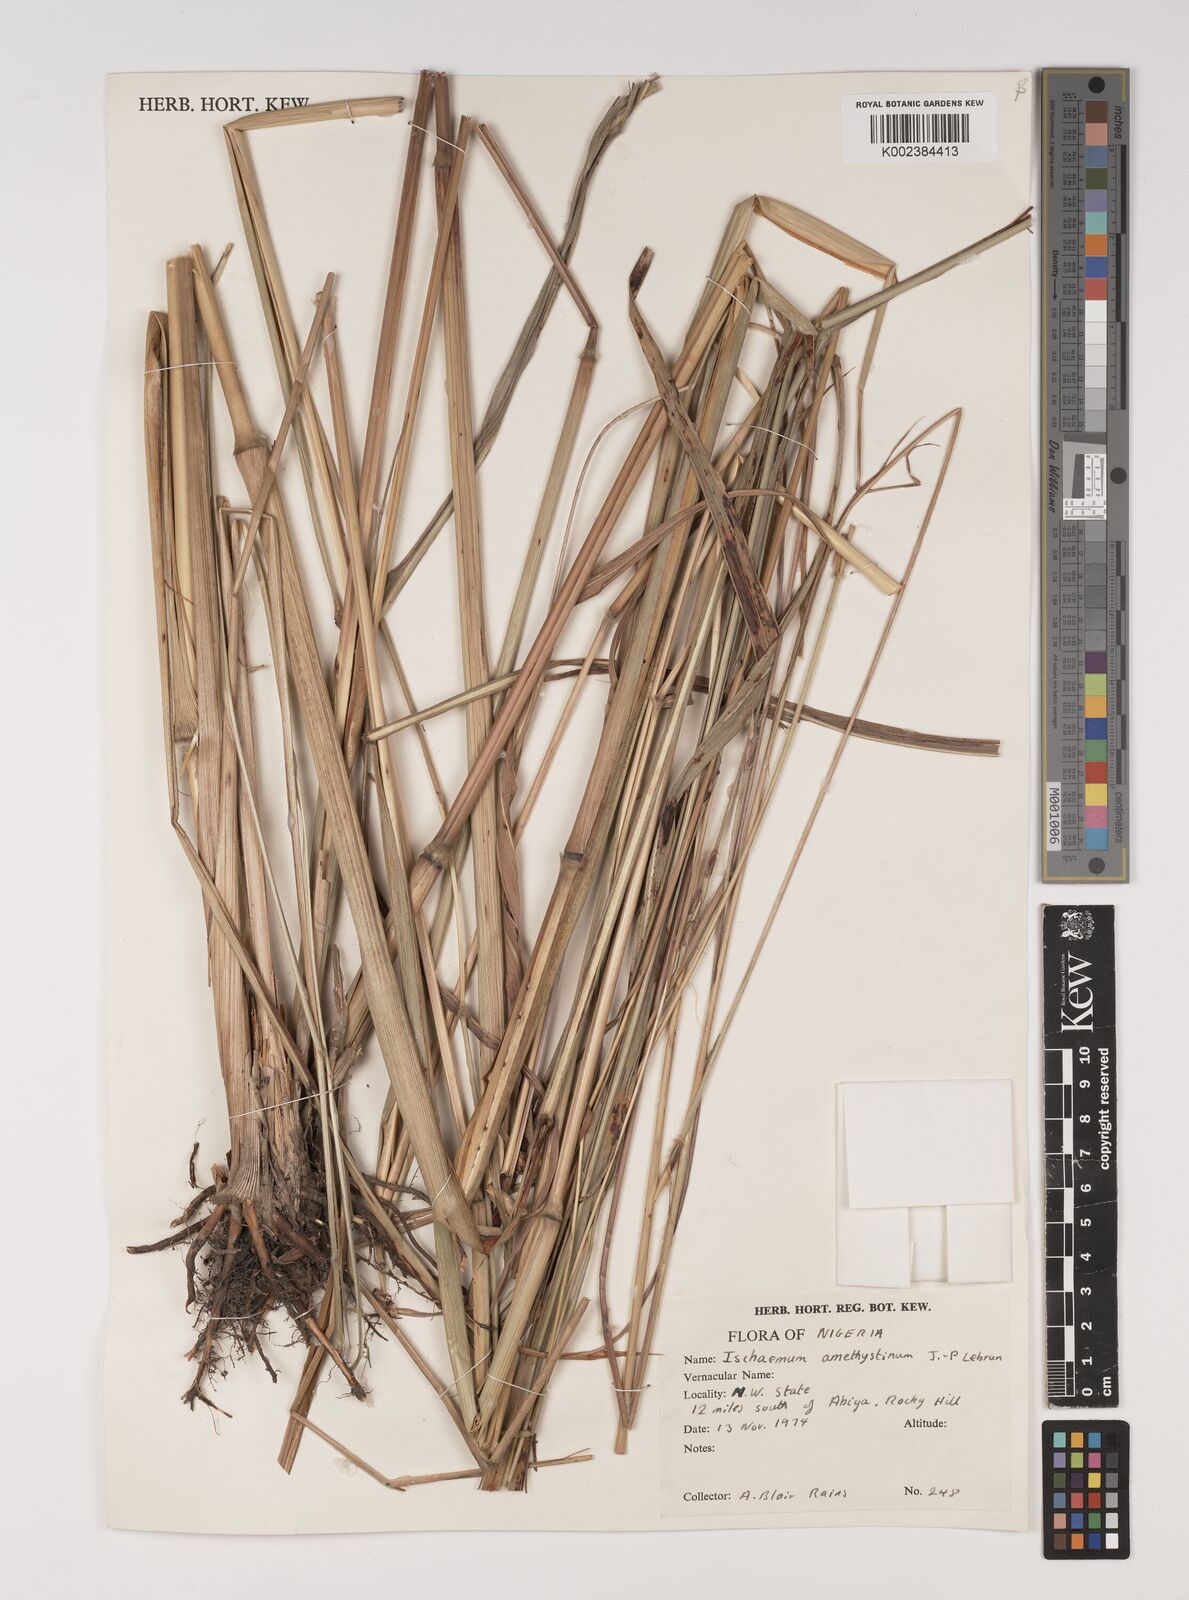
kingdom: Plantae
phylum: Tracheophyta
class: Liliopsida
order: Poales
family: Poaceae
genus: Ischaemum
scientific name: Ischaemum amethystinum
